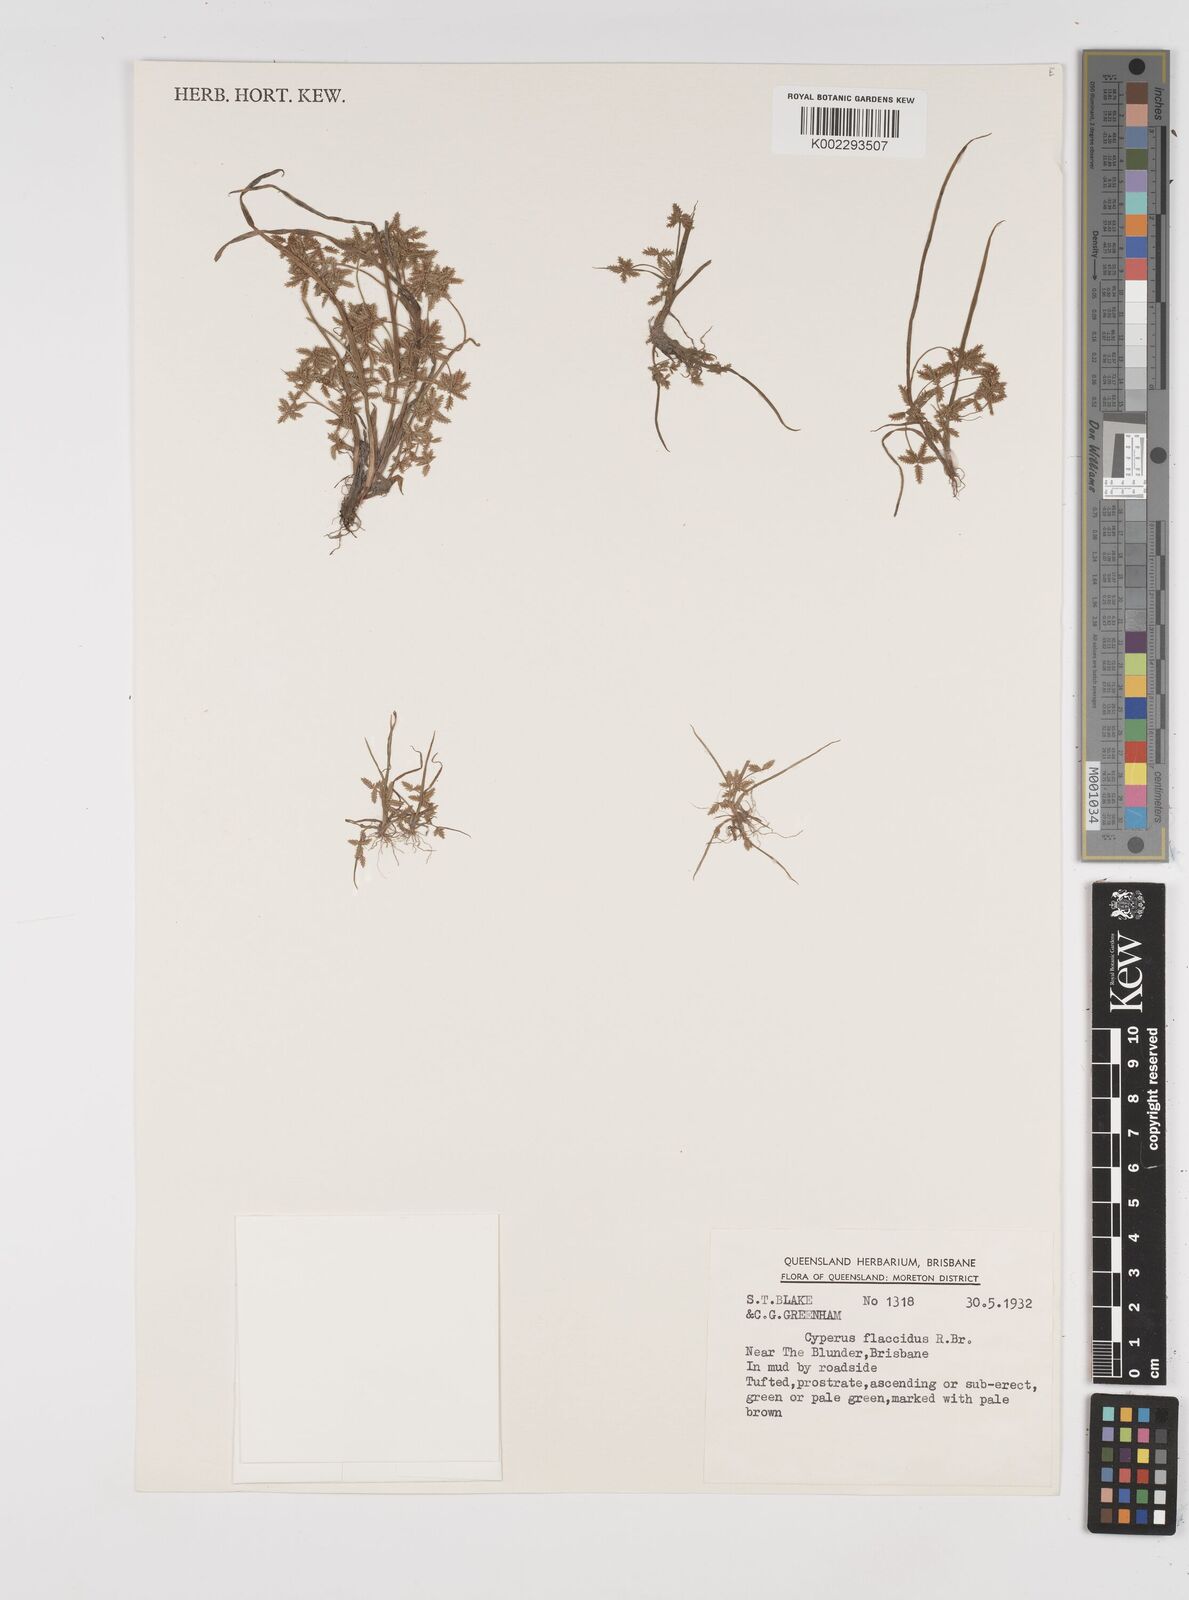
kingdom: Plantae
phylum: Tracheophyta
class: Liliopsida
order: Poales
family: Cyperaceae
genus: Cyperus
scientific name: Cyperus flaccidus
